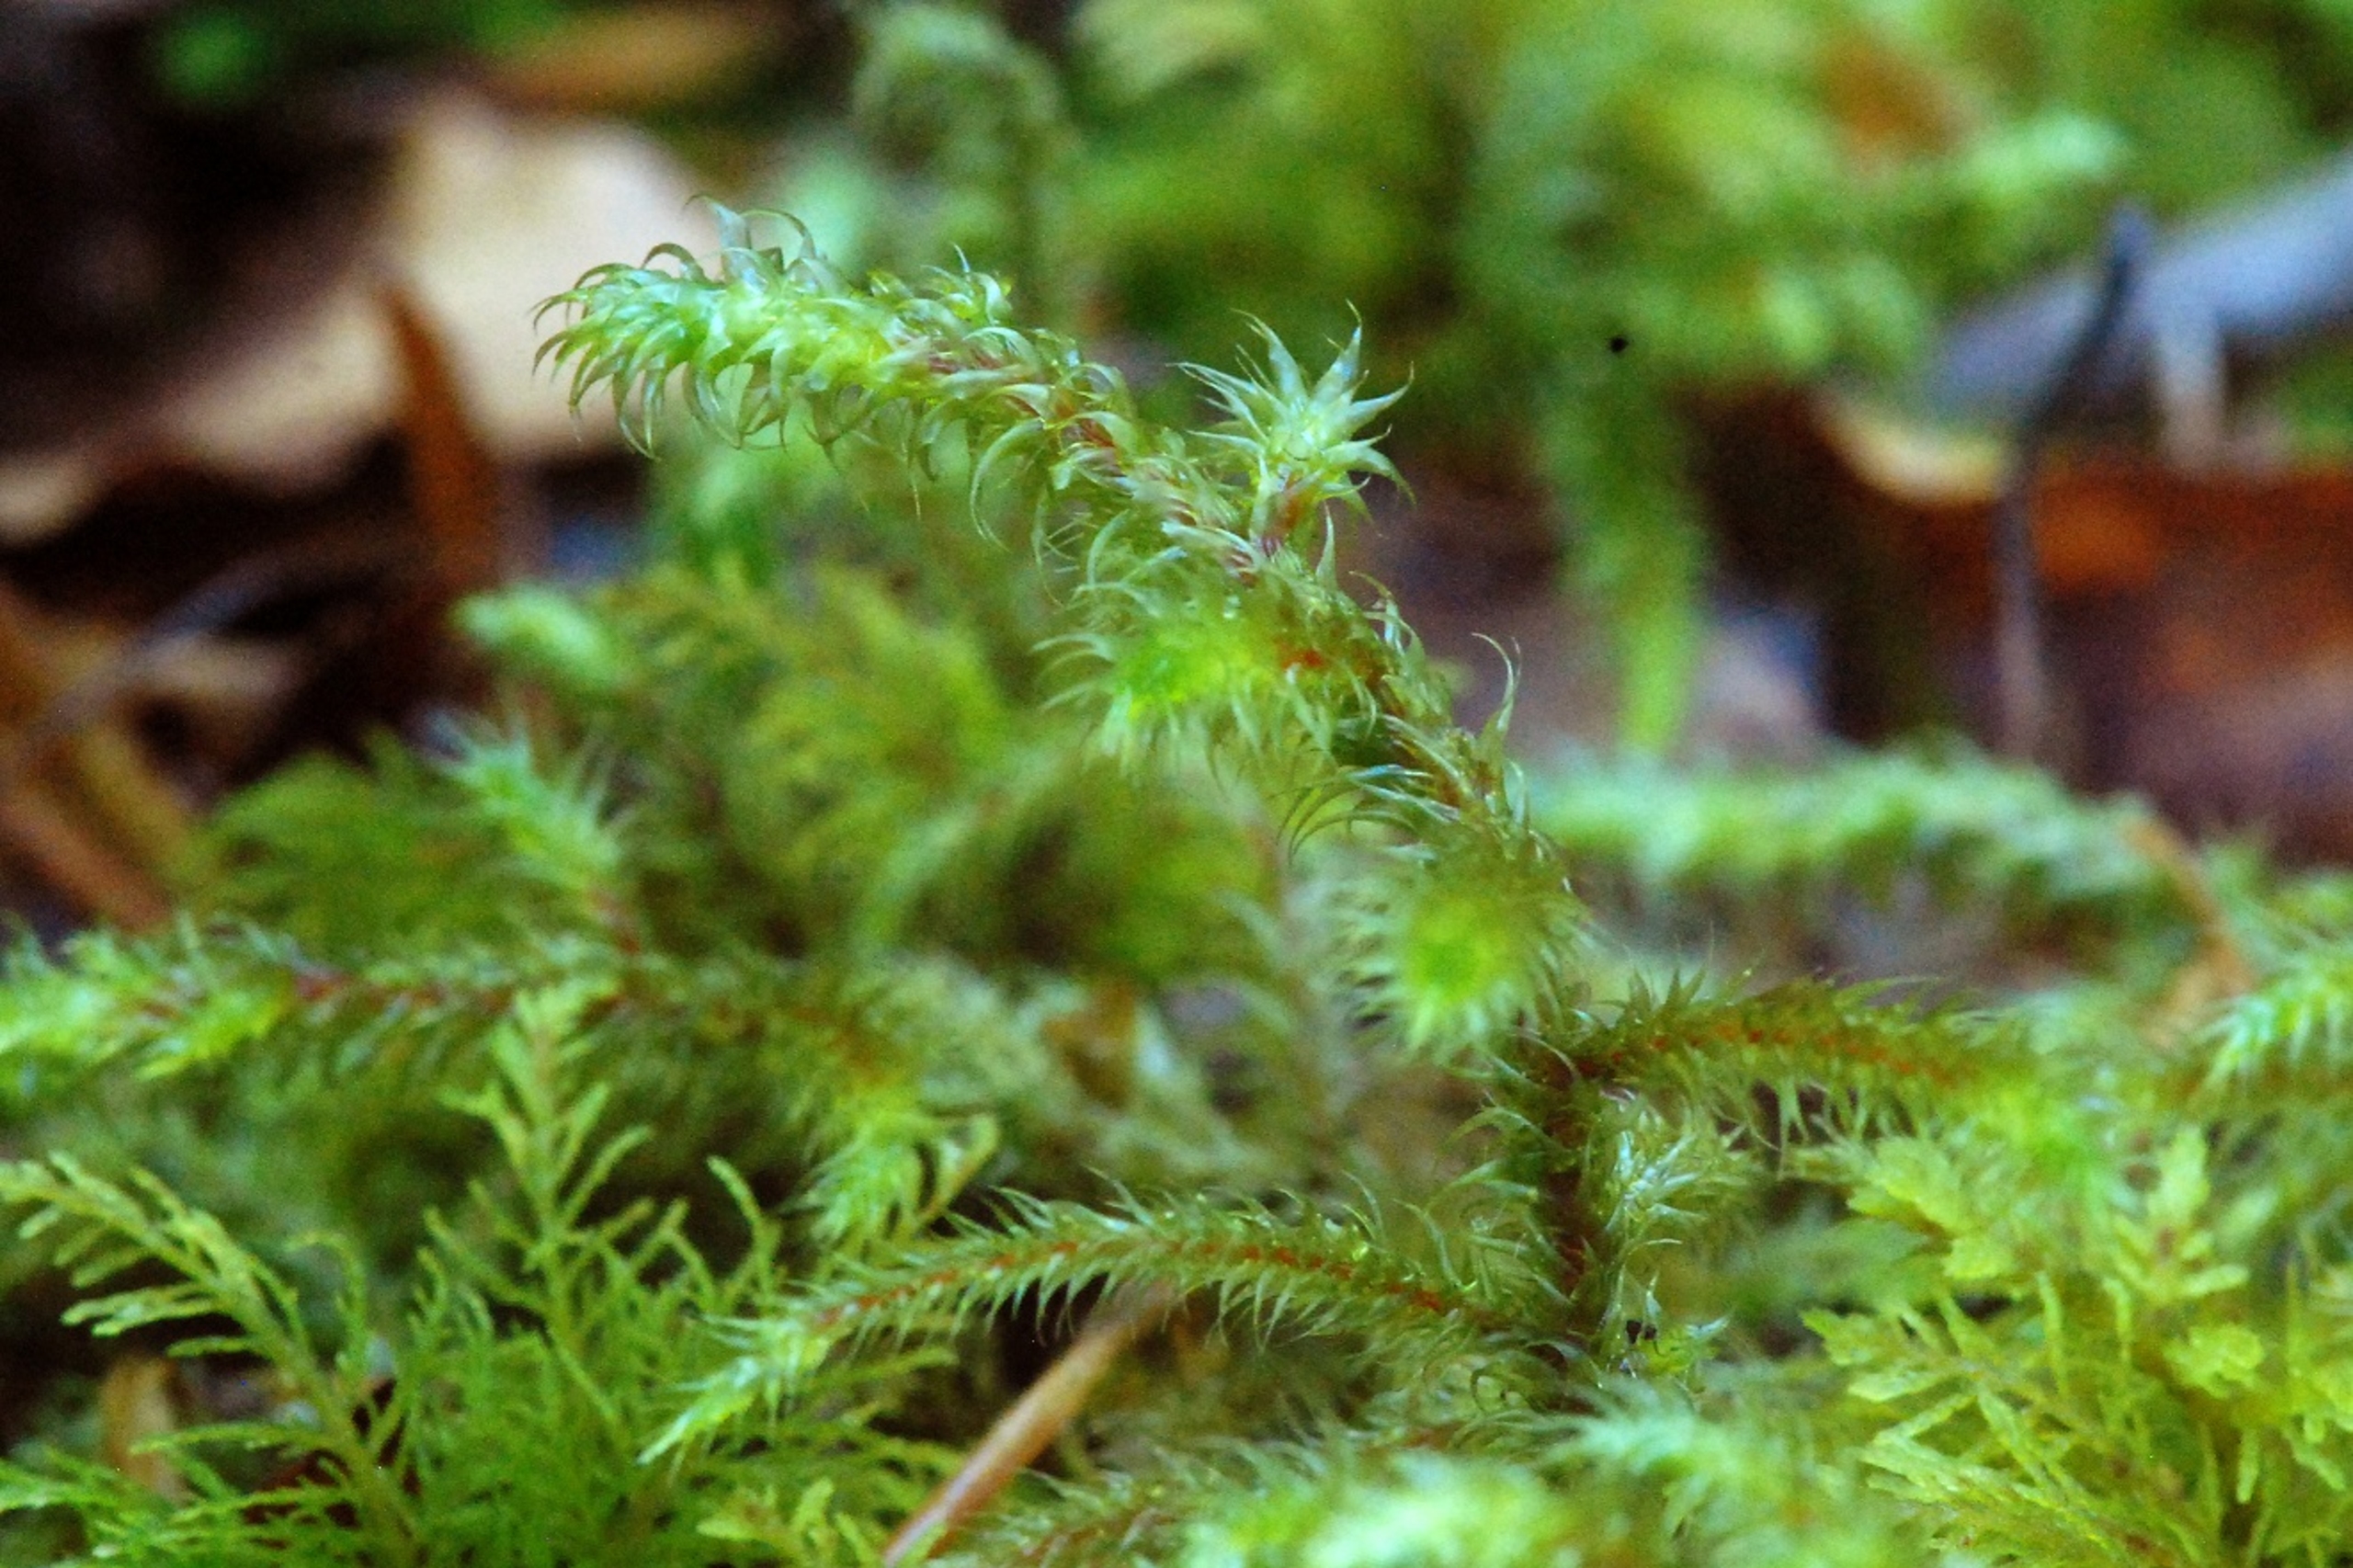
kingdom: Plantae
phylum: Bryophyta
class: Bryopsida
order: Hypnales
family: Hylocomiaceae
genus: Rhytidiadelphus
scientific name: Rhytidiadelphus loreus
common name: Ulvefod-kransemos
